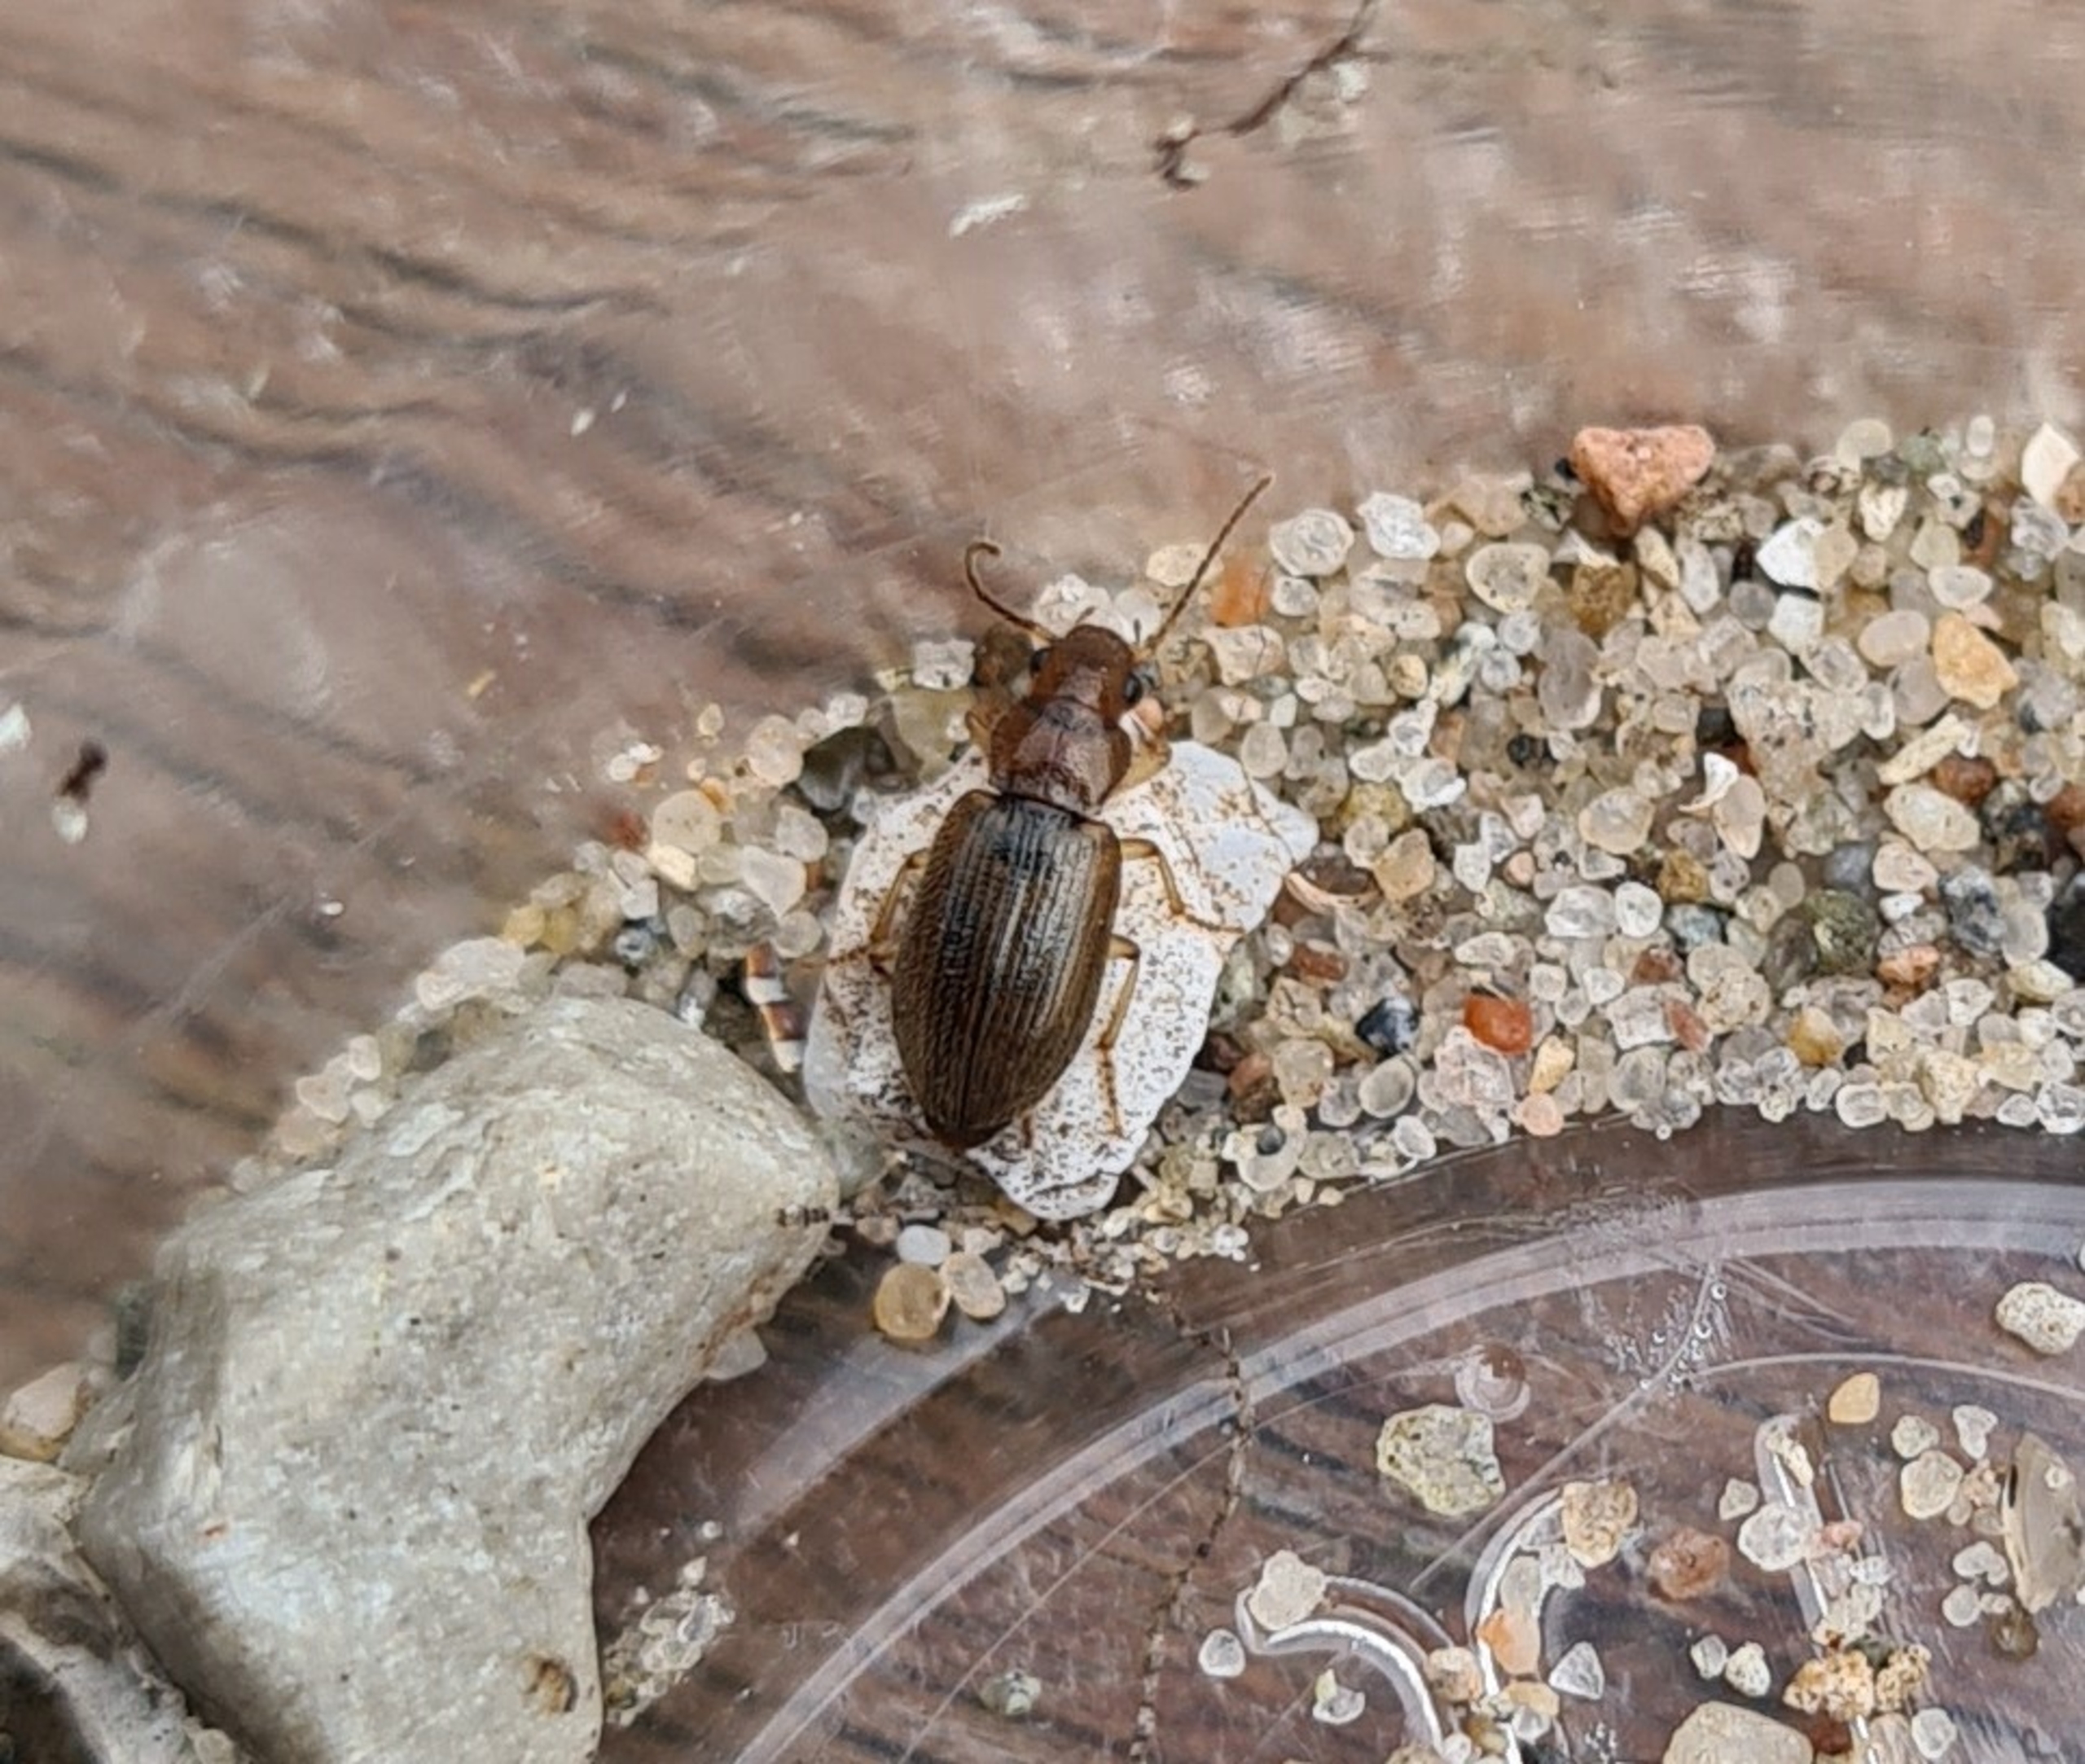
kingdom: Animalia
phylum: Arthropoda
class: Insecta
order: Coleoptera
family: Carabidae
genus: Dicheirotrichus
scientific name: Dicheirotrichus gustavii
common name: Slikløber
